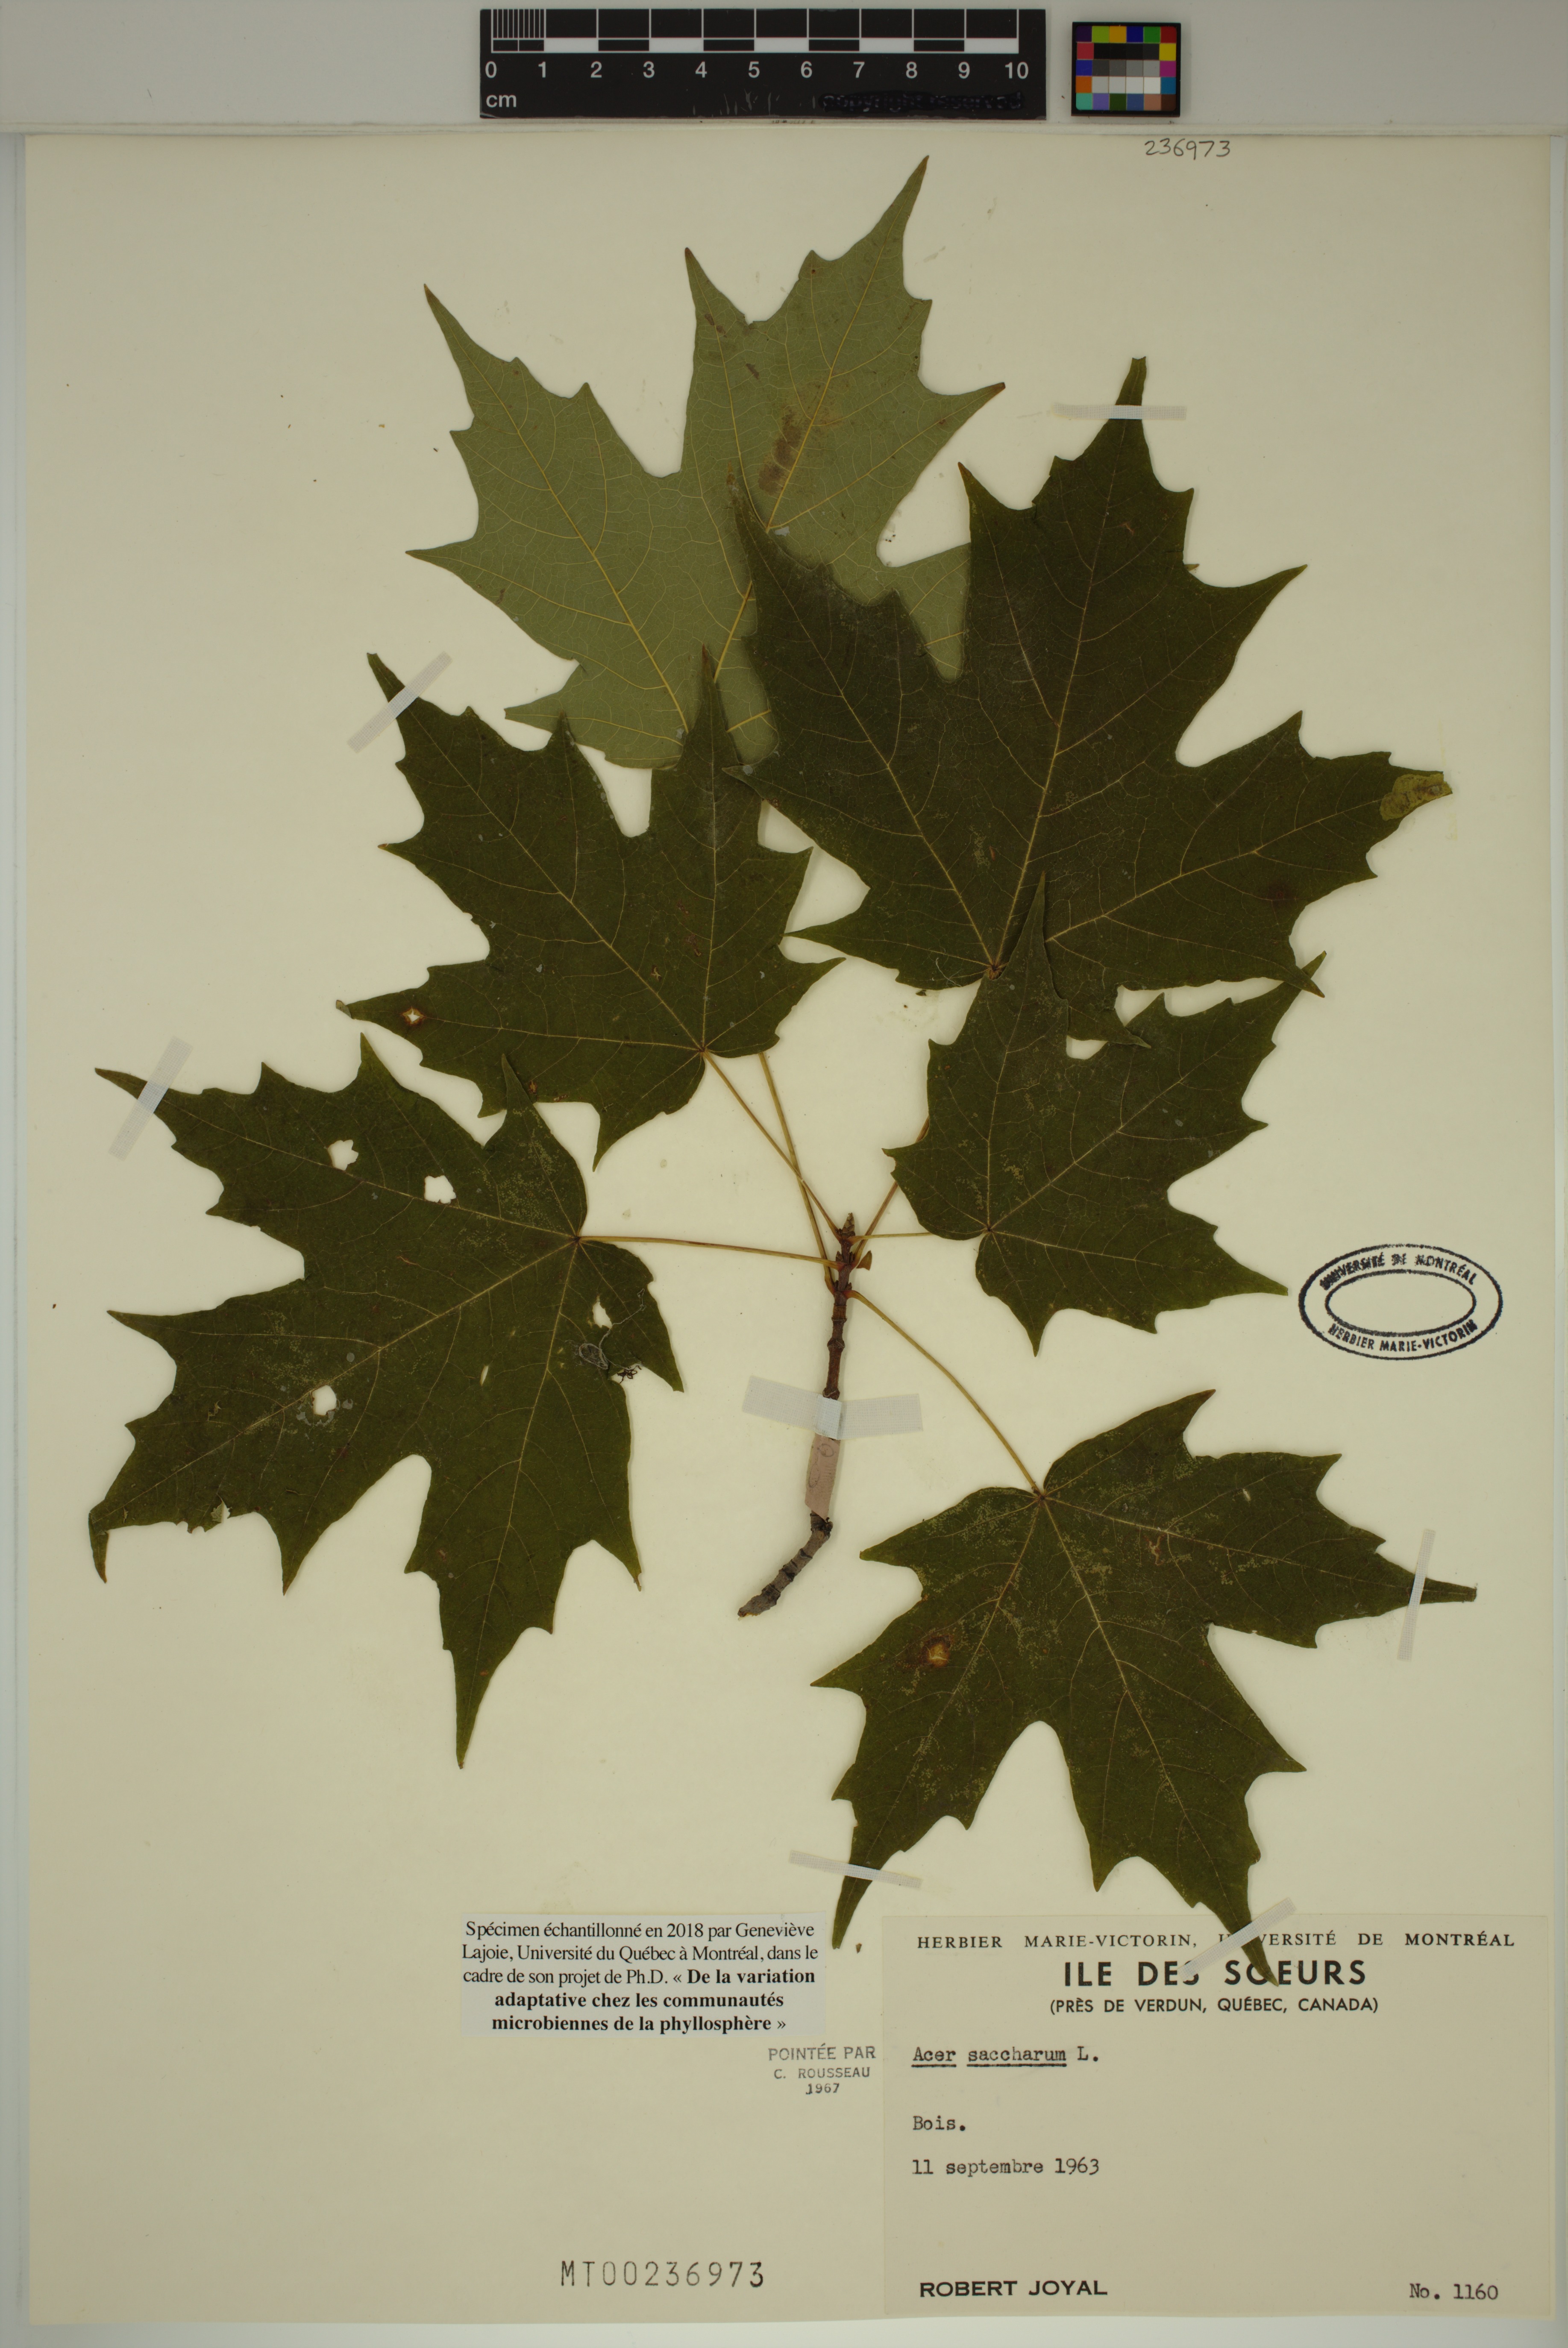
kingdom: Plantae
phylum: Tracheophyta
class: Magnoliopsida
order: Sapindales
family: Sapindaceae
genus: Acer
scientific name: Acer saccharum
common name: Sugar maple
